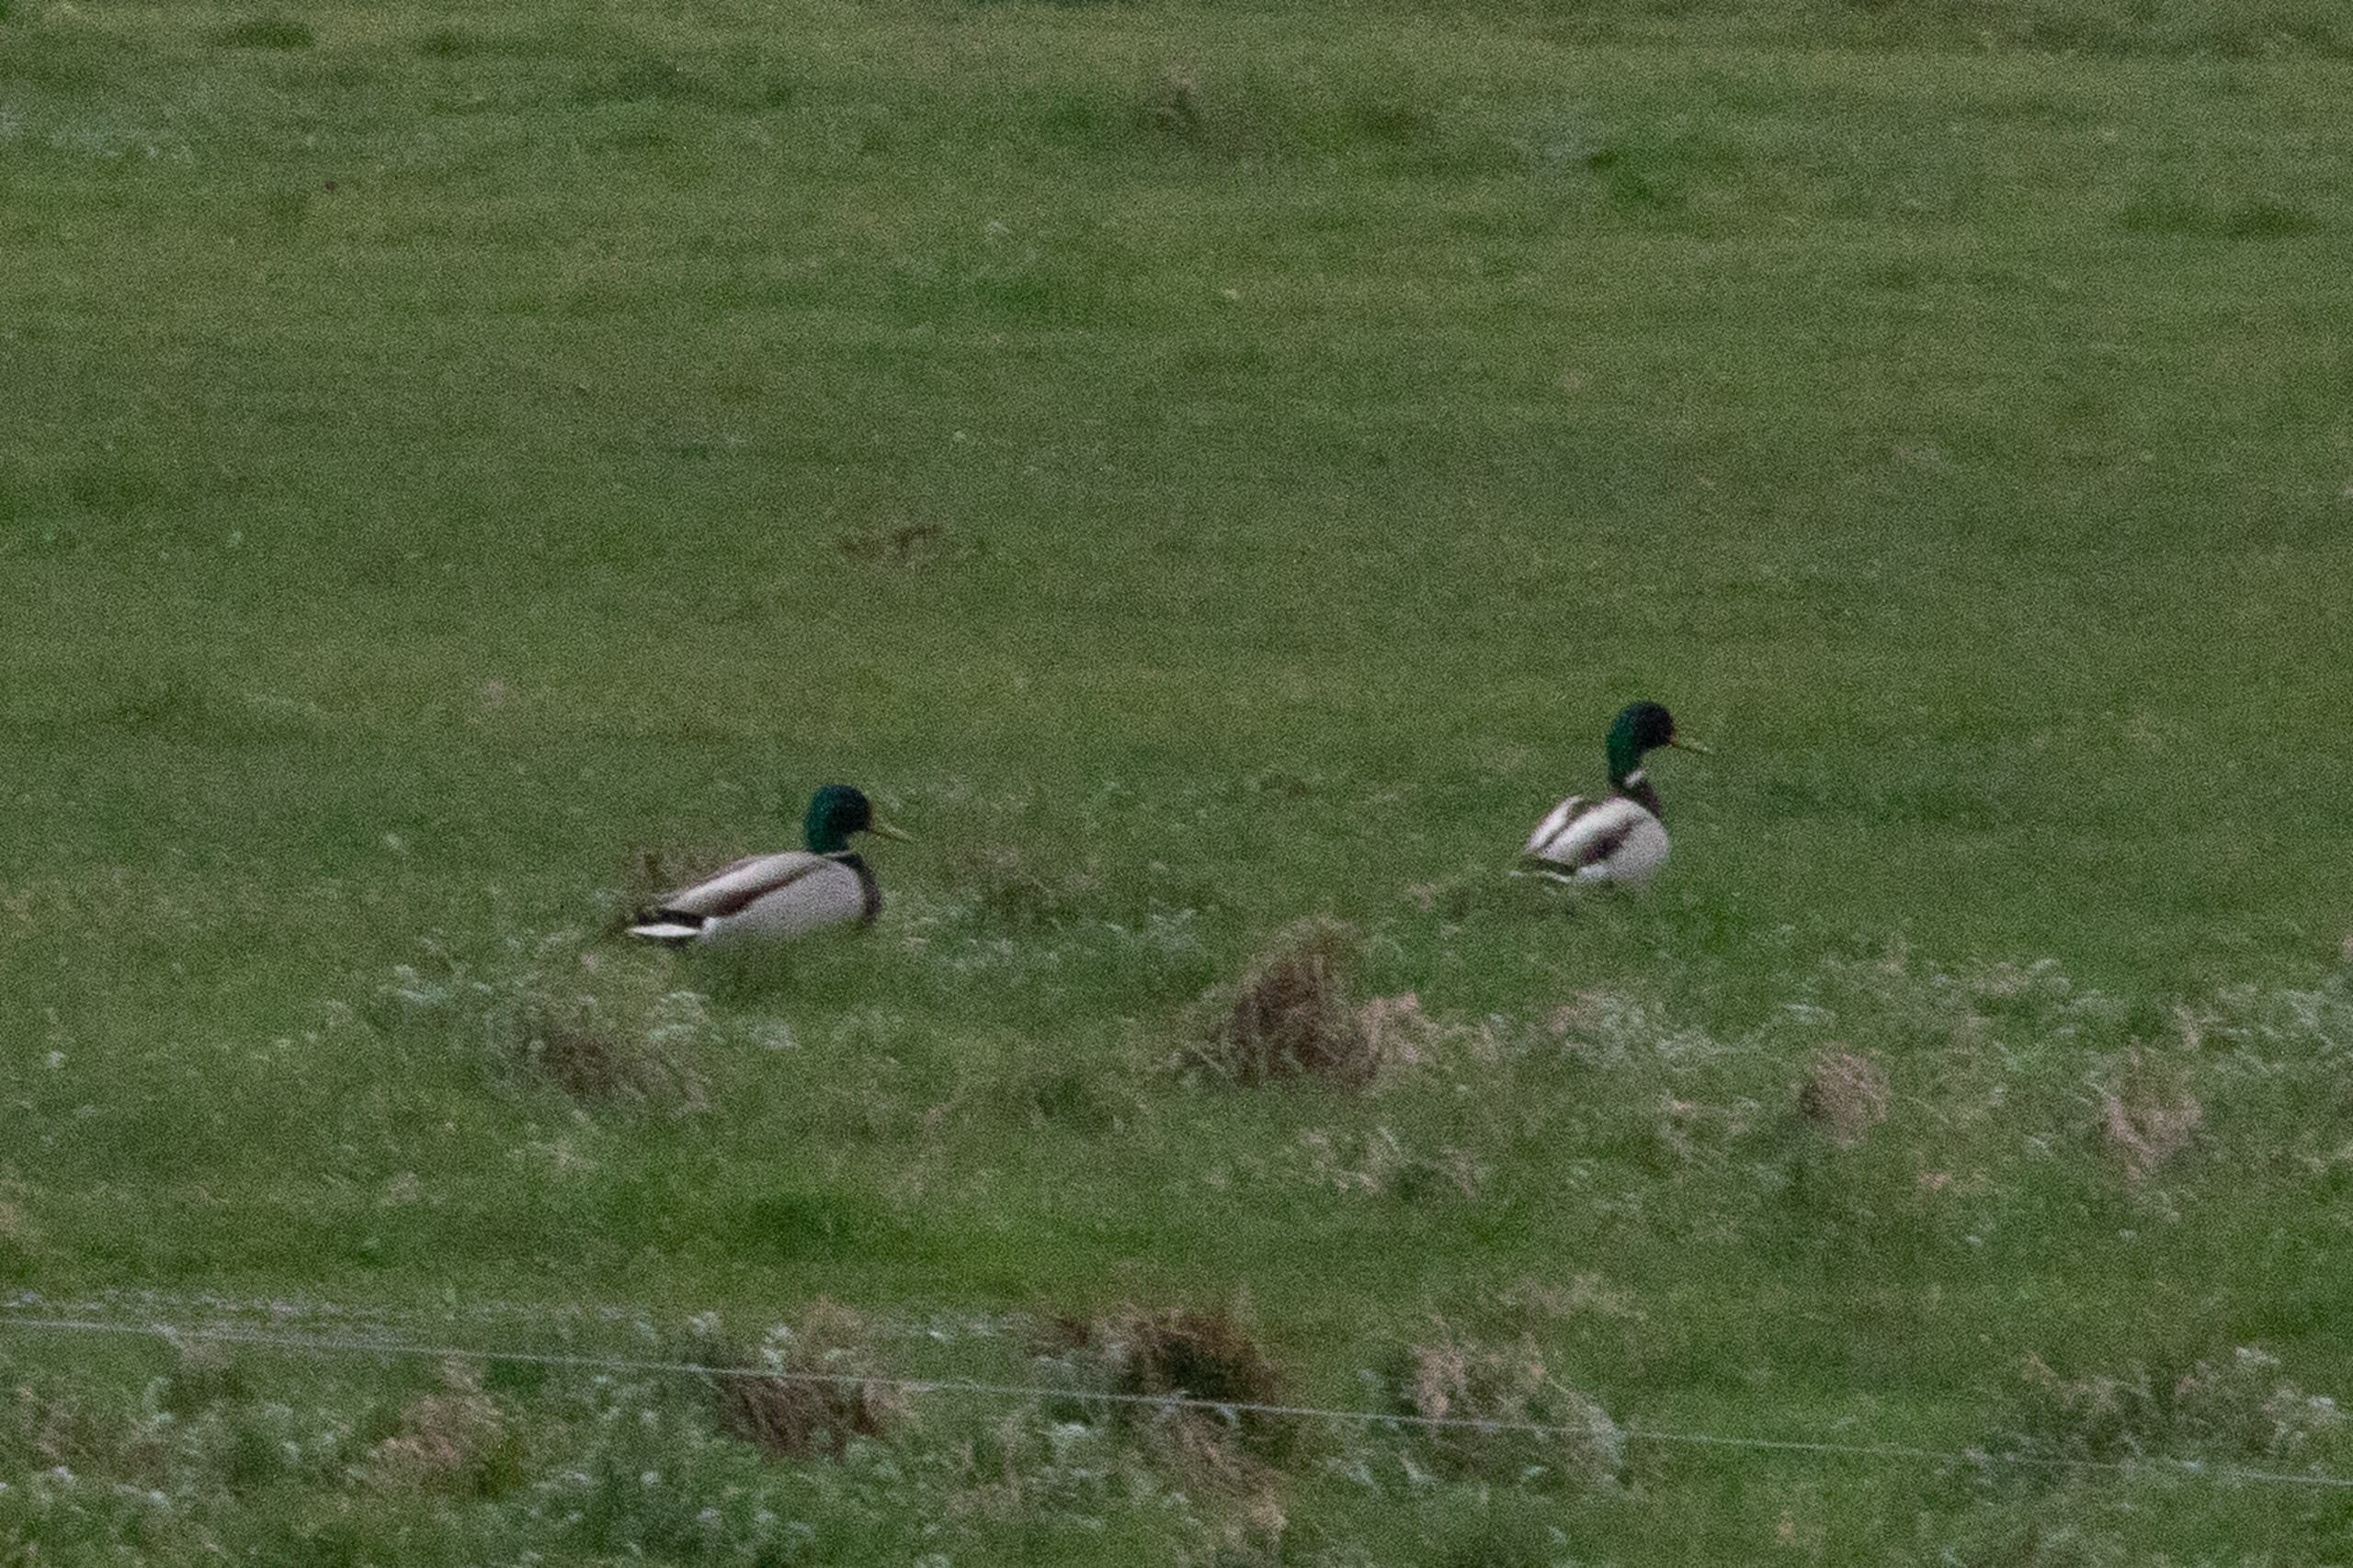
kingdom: Animalia
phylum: Chordata
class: Aves
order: Anseriformes
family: Anatidae
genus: Anas
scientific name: Anas platyrhynchos
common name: Gråand
